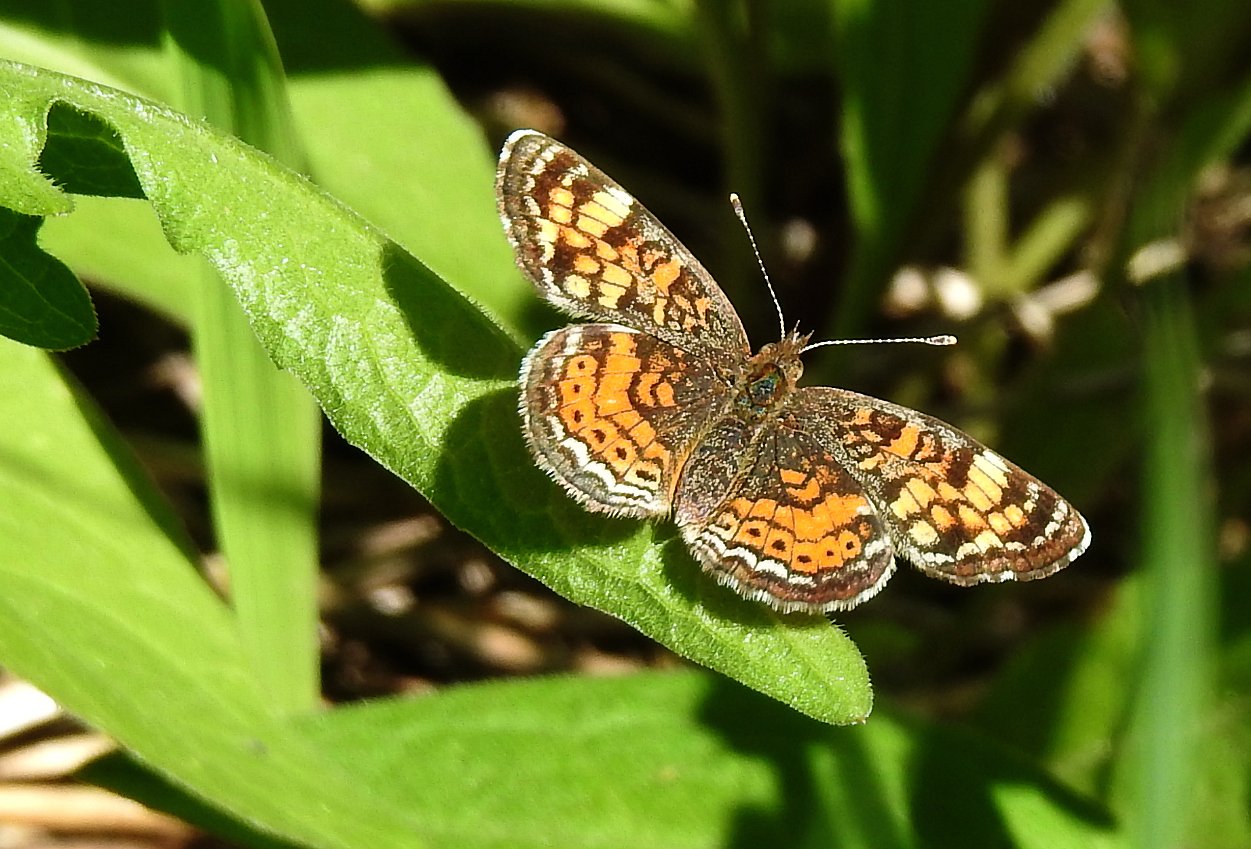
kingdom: Animalia
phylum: Arthropoda
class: Insecta
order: Lepidoptera
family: Nymphalidae
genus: Phyciodes
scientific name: Phyciodes tharos
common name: Pearl Crescent
